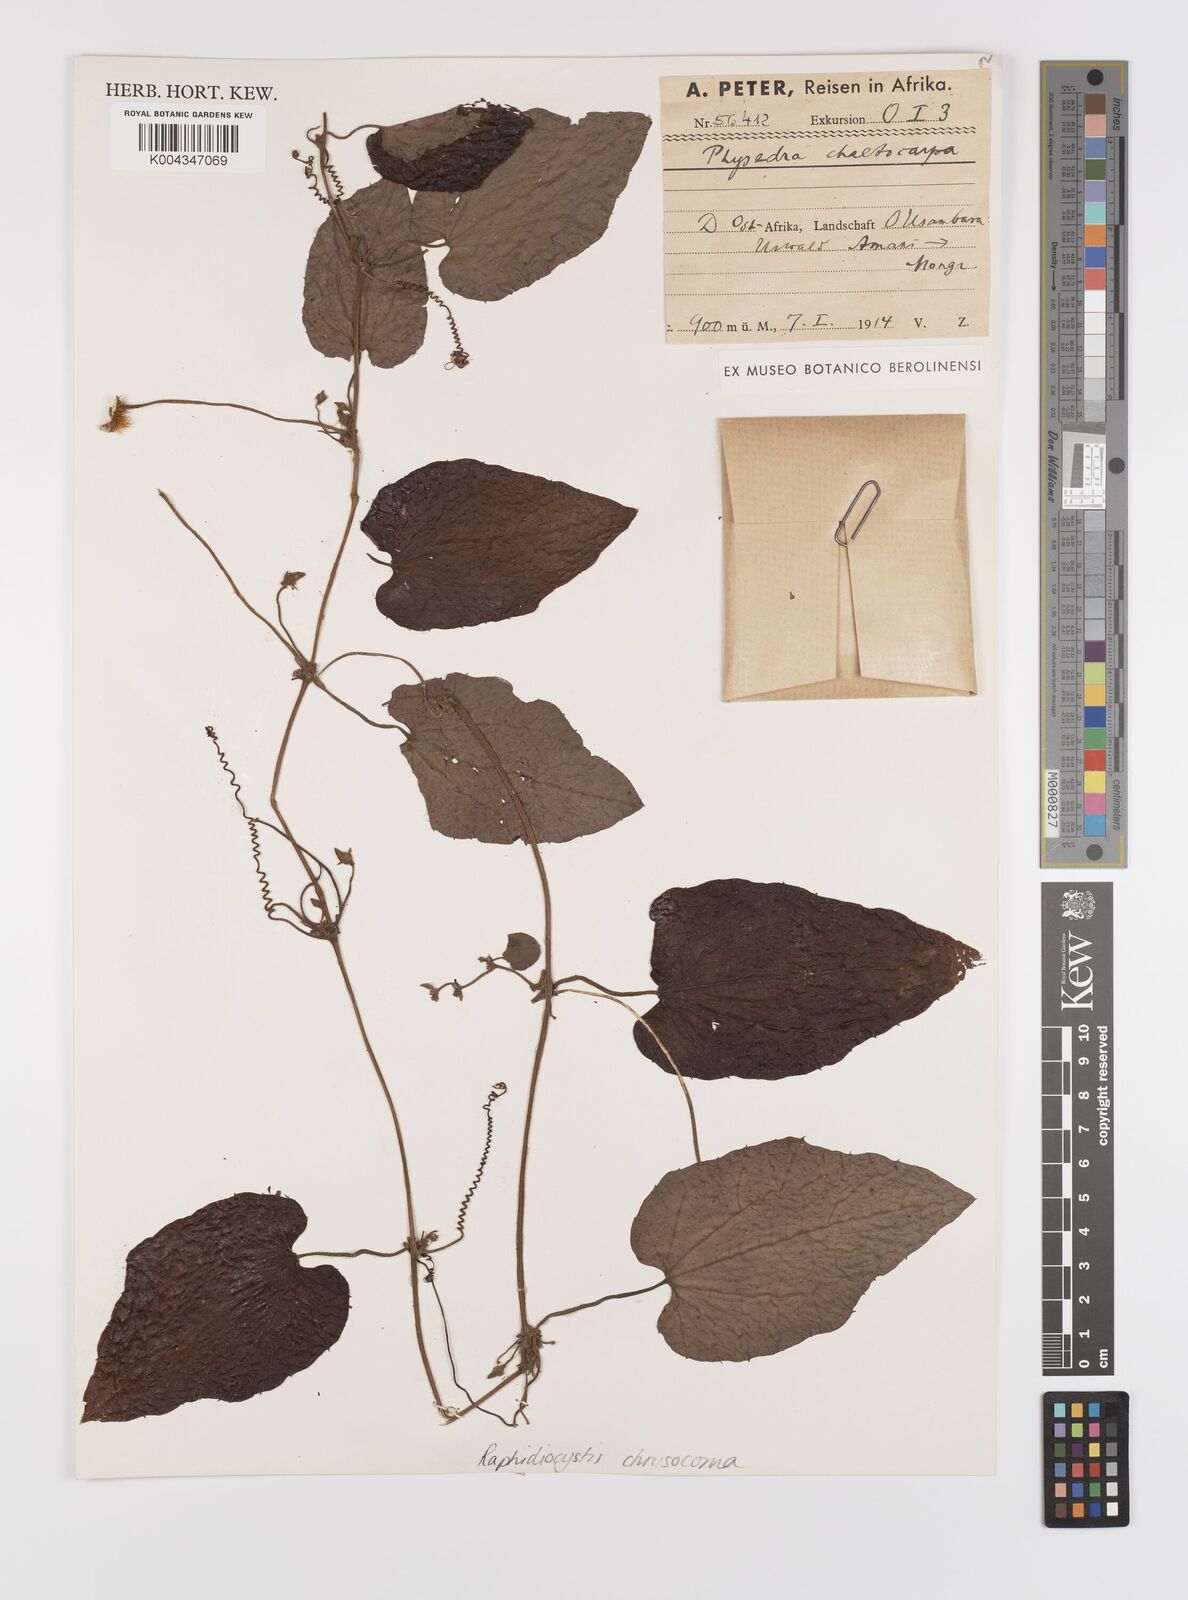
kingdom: Plantae
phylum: Tracheophyta
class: Magnoliopsida
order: Cucurbitales
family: Cucurbitaceae
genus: Raphidiocystis
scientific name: Raphidiocystis chrysocoma
